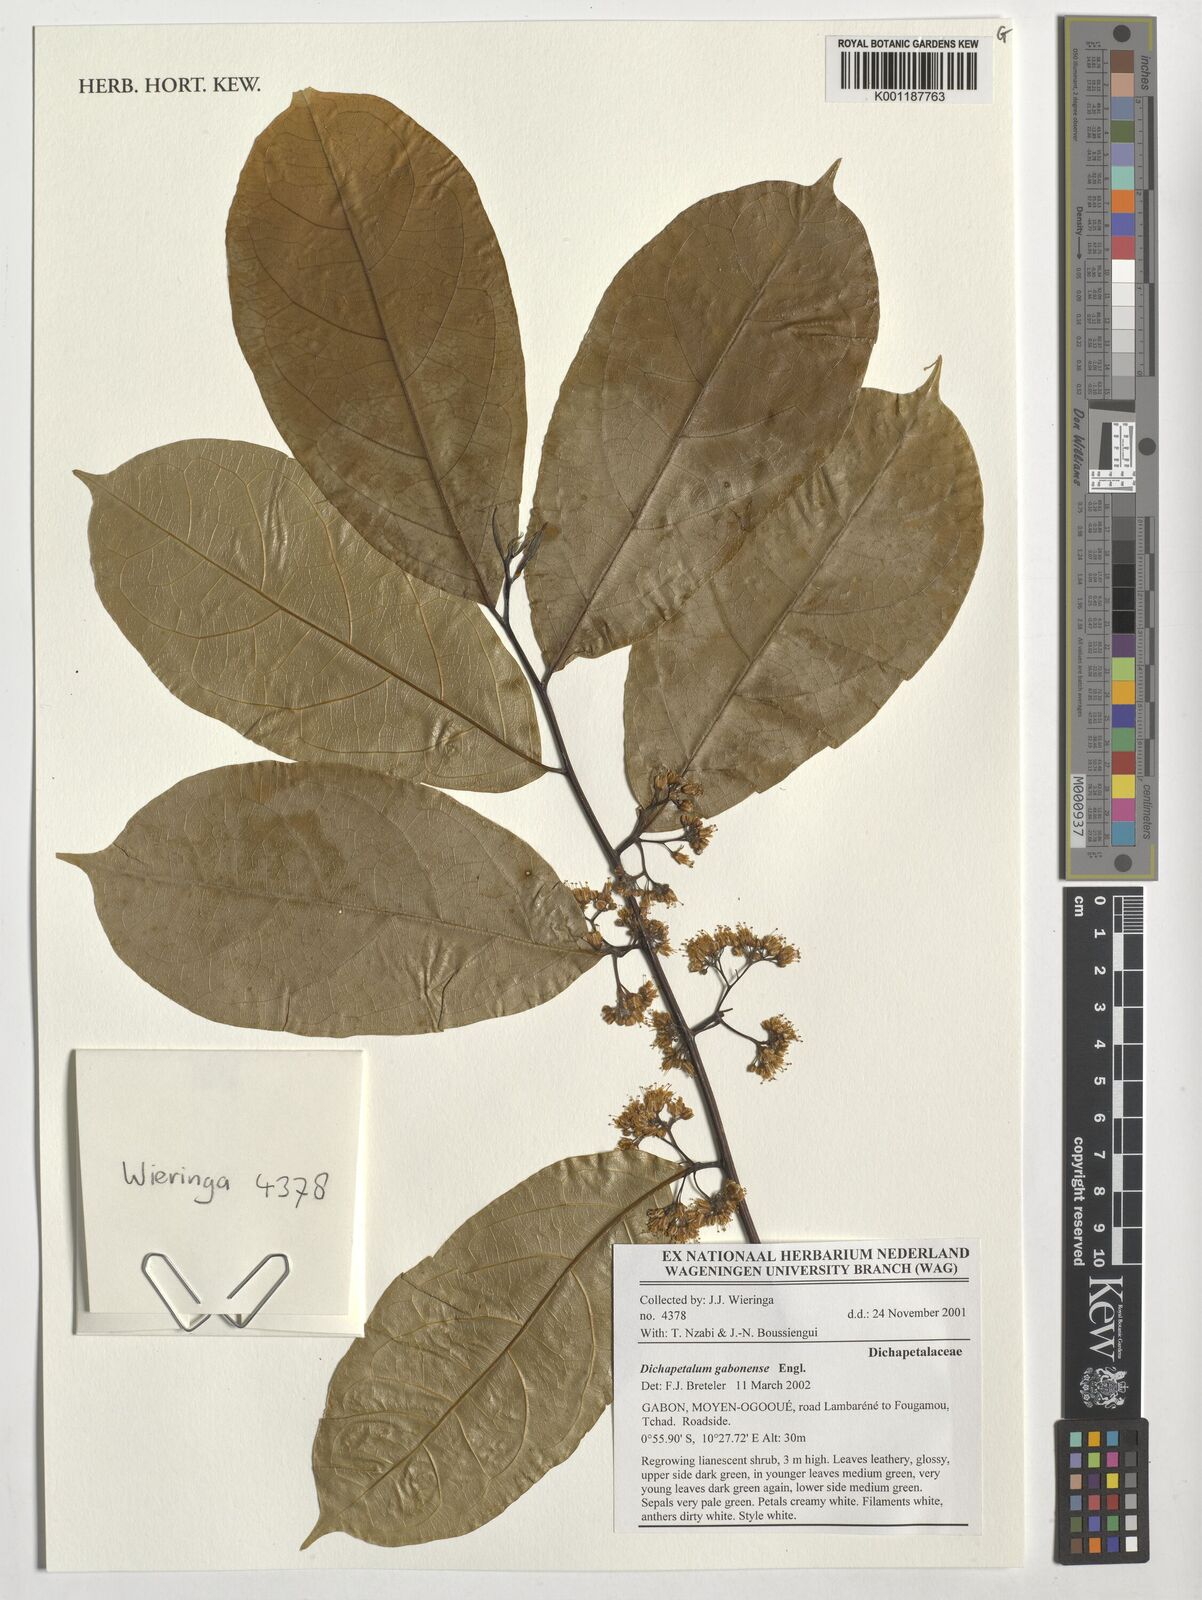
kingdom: Plantae
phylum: Tracheophyta
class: Magnoliopsida
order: Malpighiales
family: Dichapetalaceae
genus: Dichapetalum
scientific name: Dichapetalum gabonense
